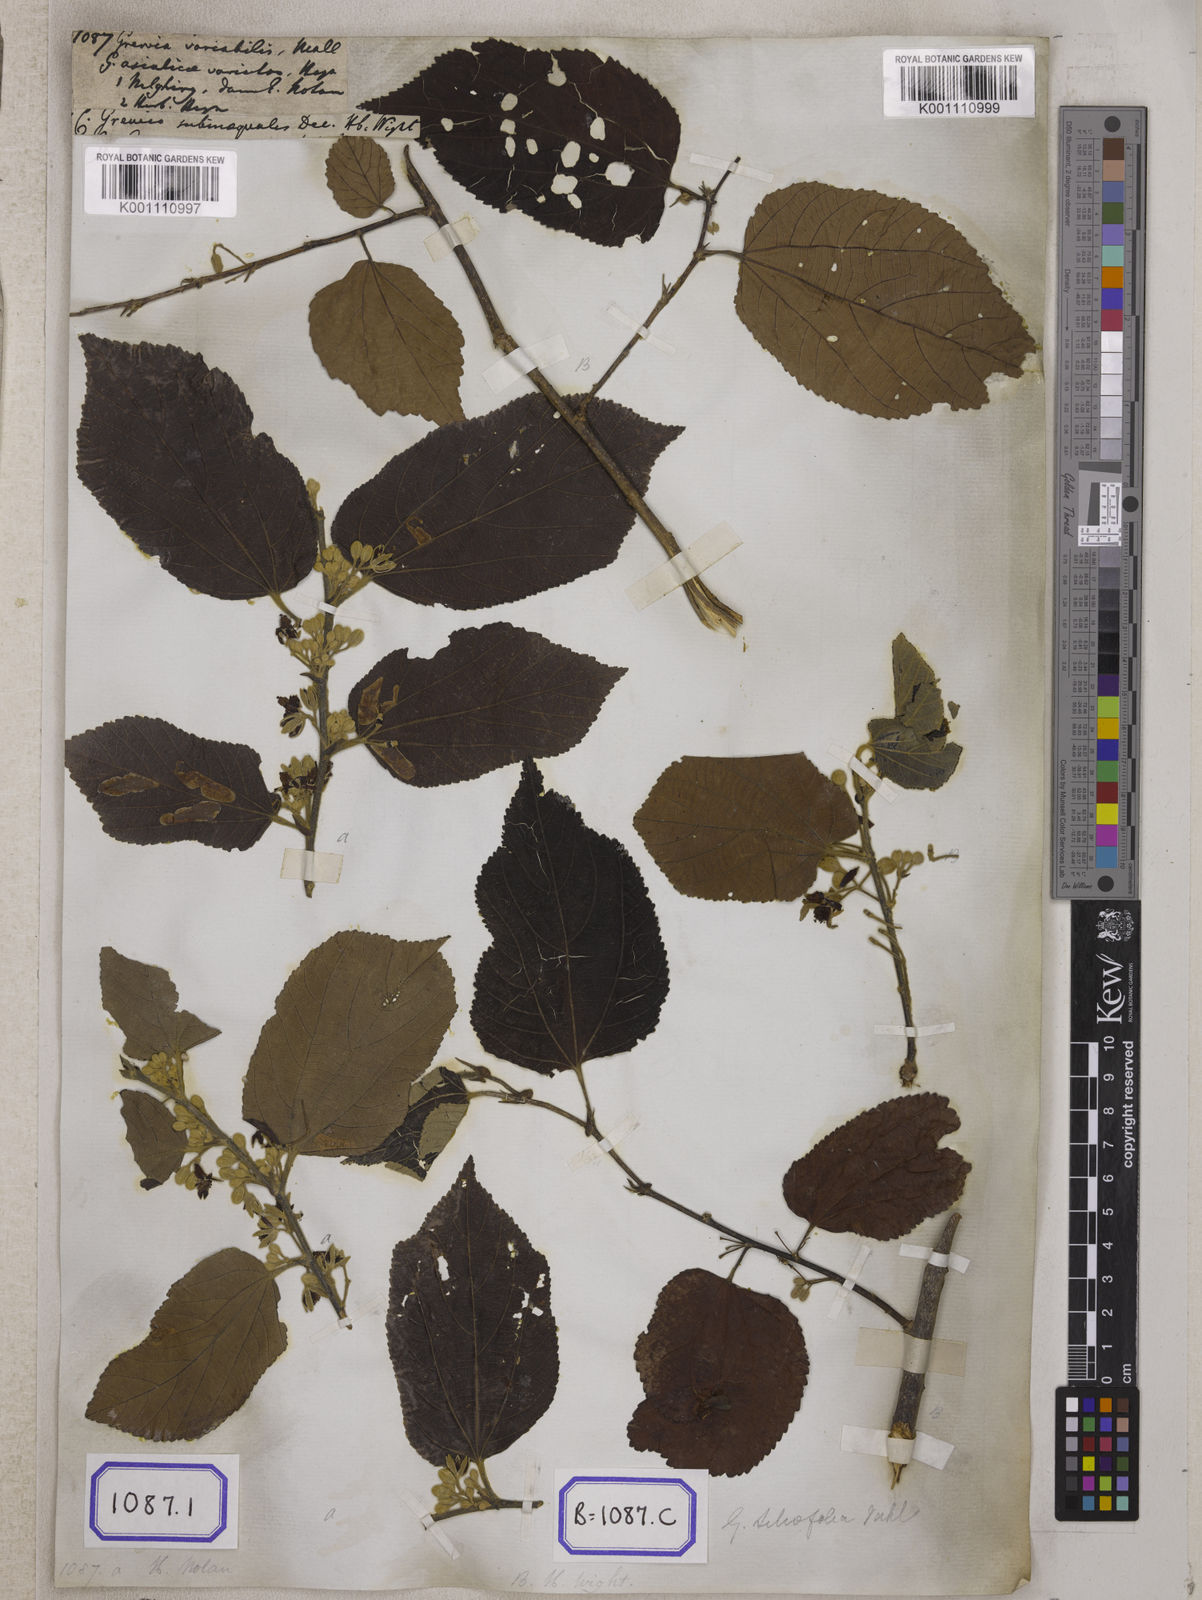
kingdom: Plantae
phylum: Tracheophyta
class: Magnoliopsida
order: Malvales
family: Malvaceae
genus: Grewia
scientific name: Grewia
